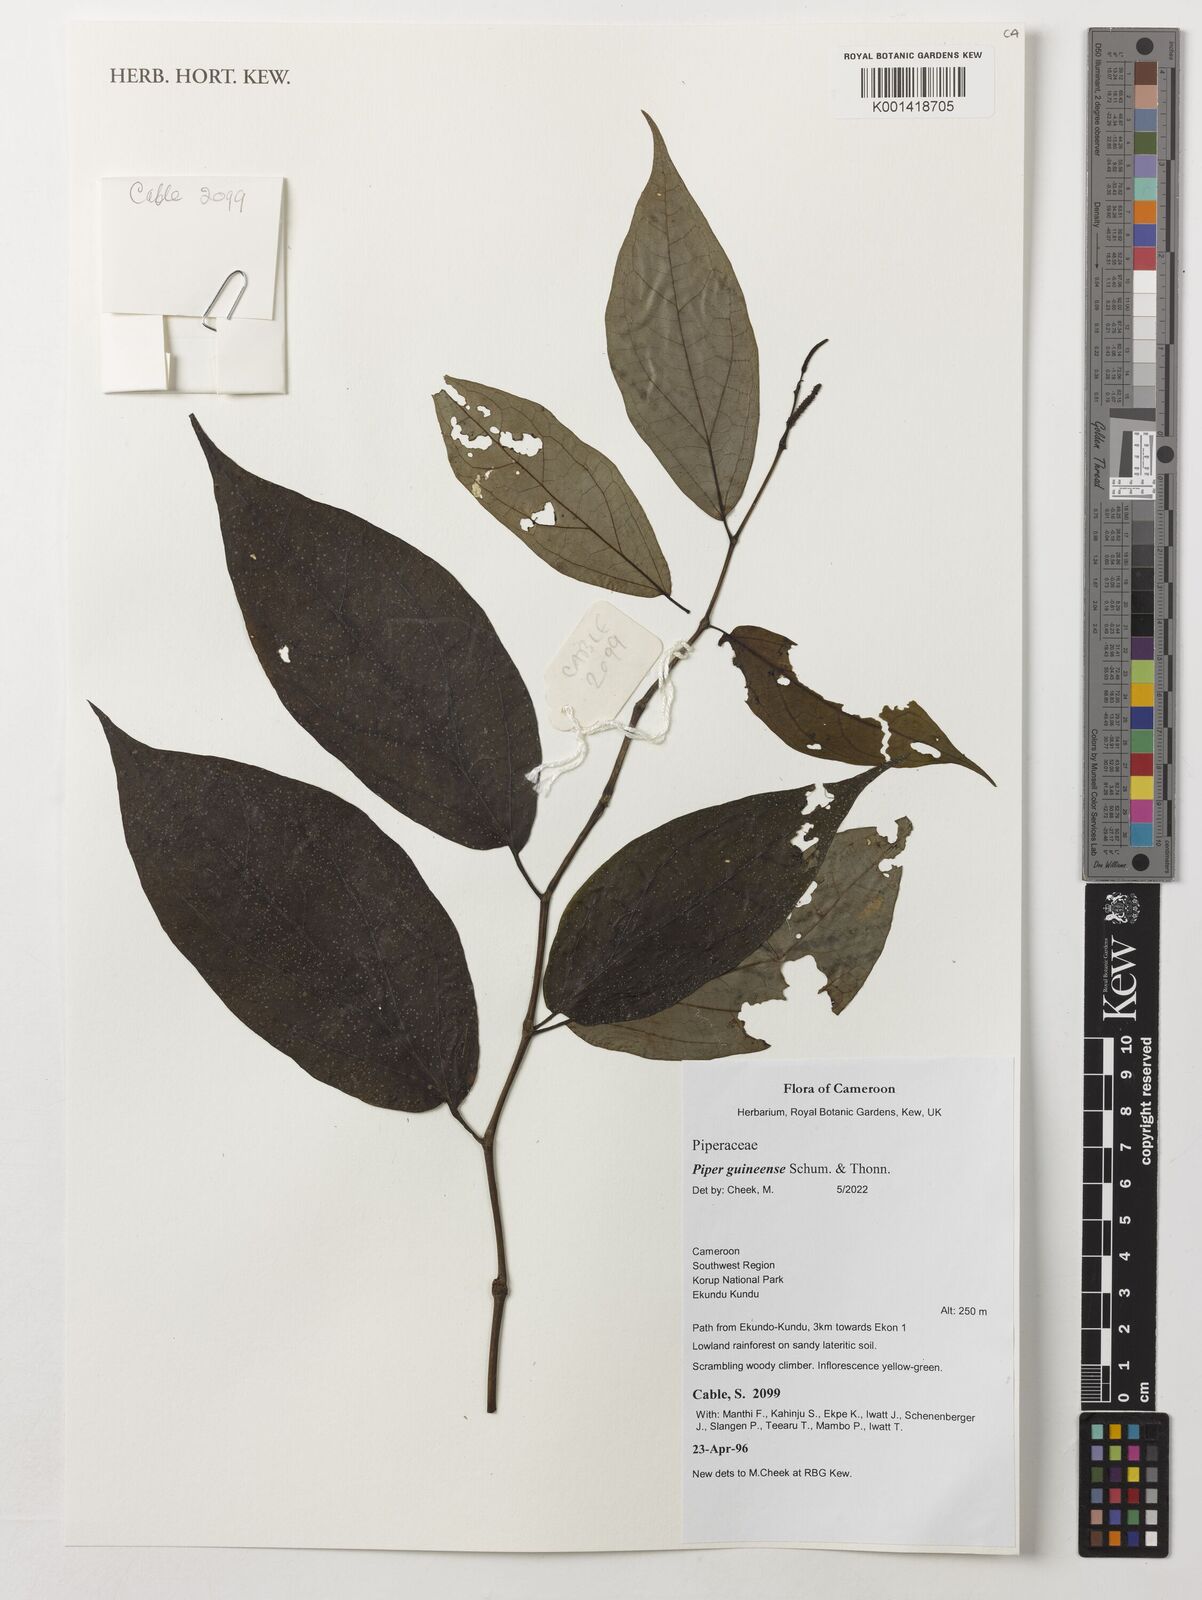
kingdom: Plantae
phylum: Tracheophyta
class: Magnoliopsida
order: Piperales
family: Piperaceae
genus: Piper
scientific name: Piper guineense
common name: Benin pepper
